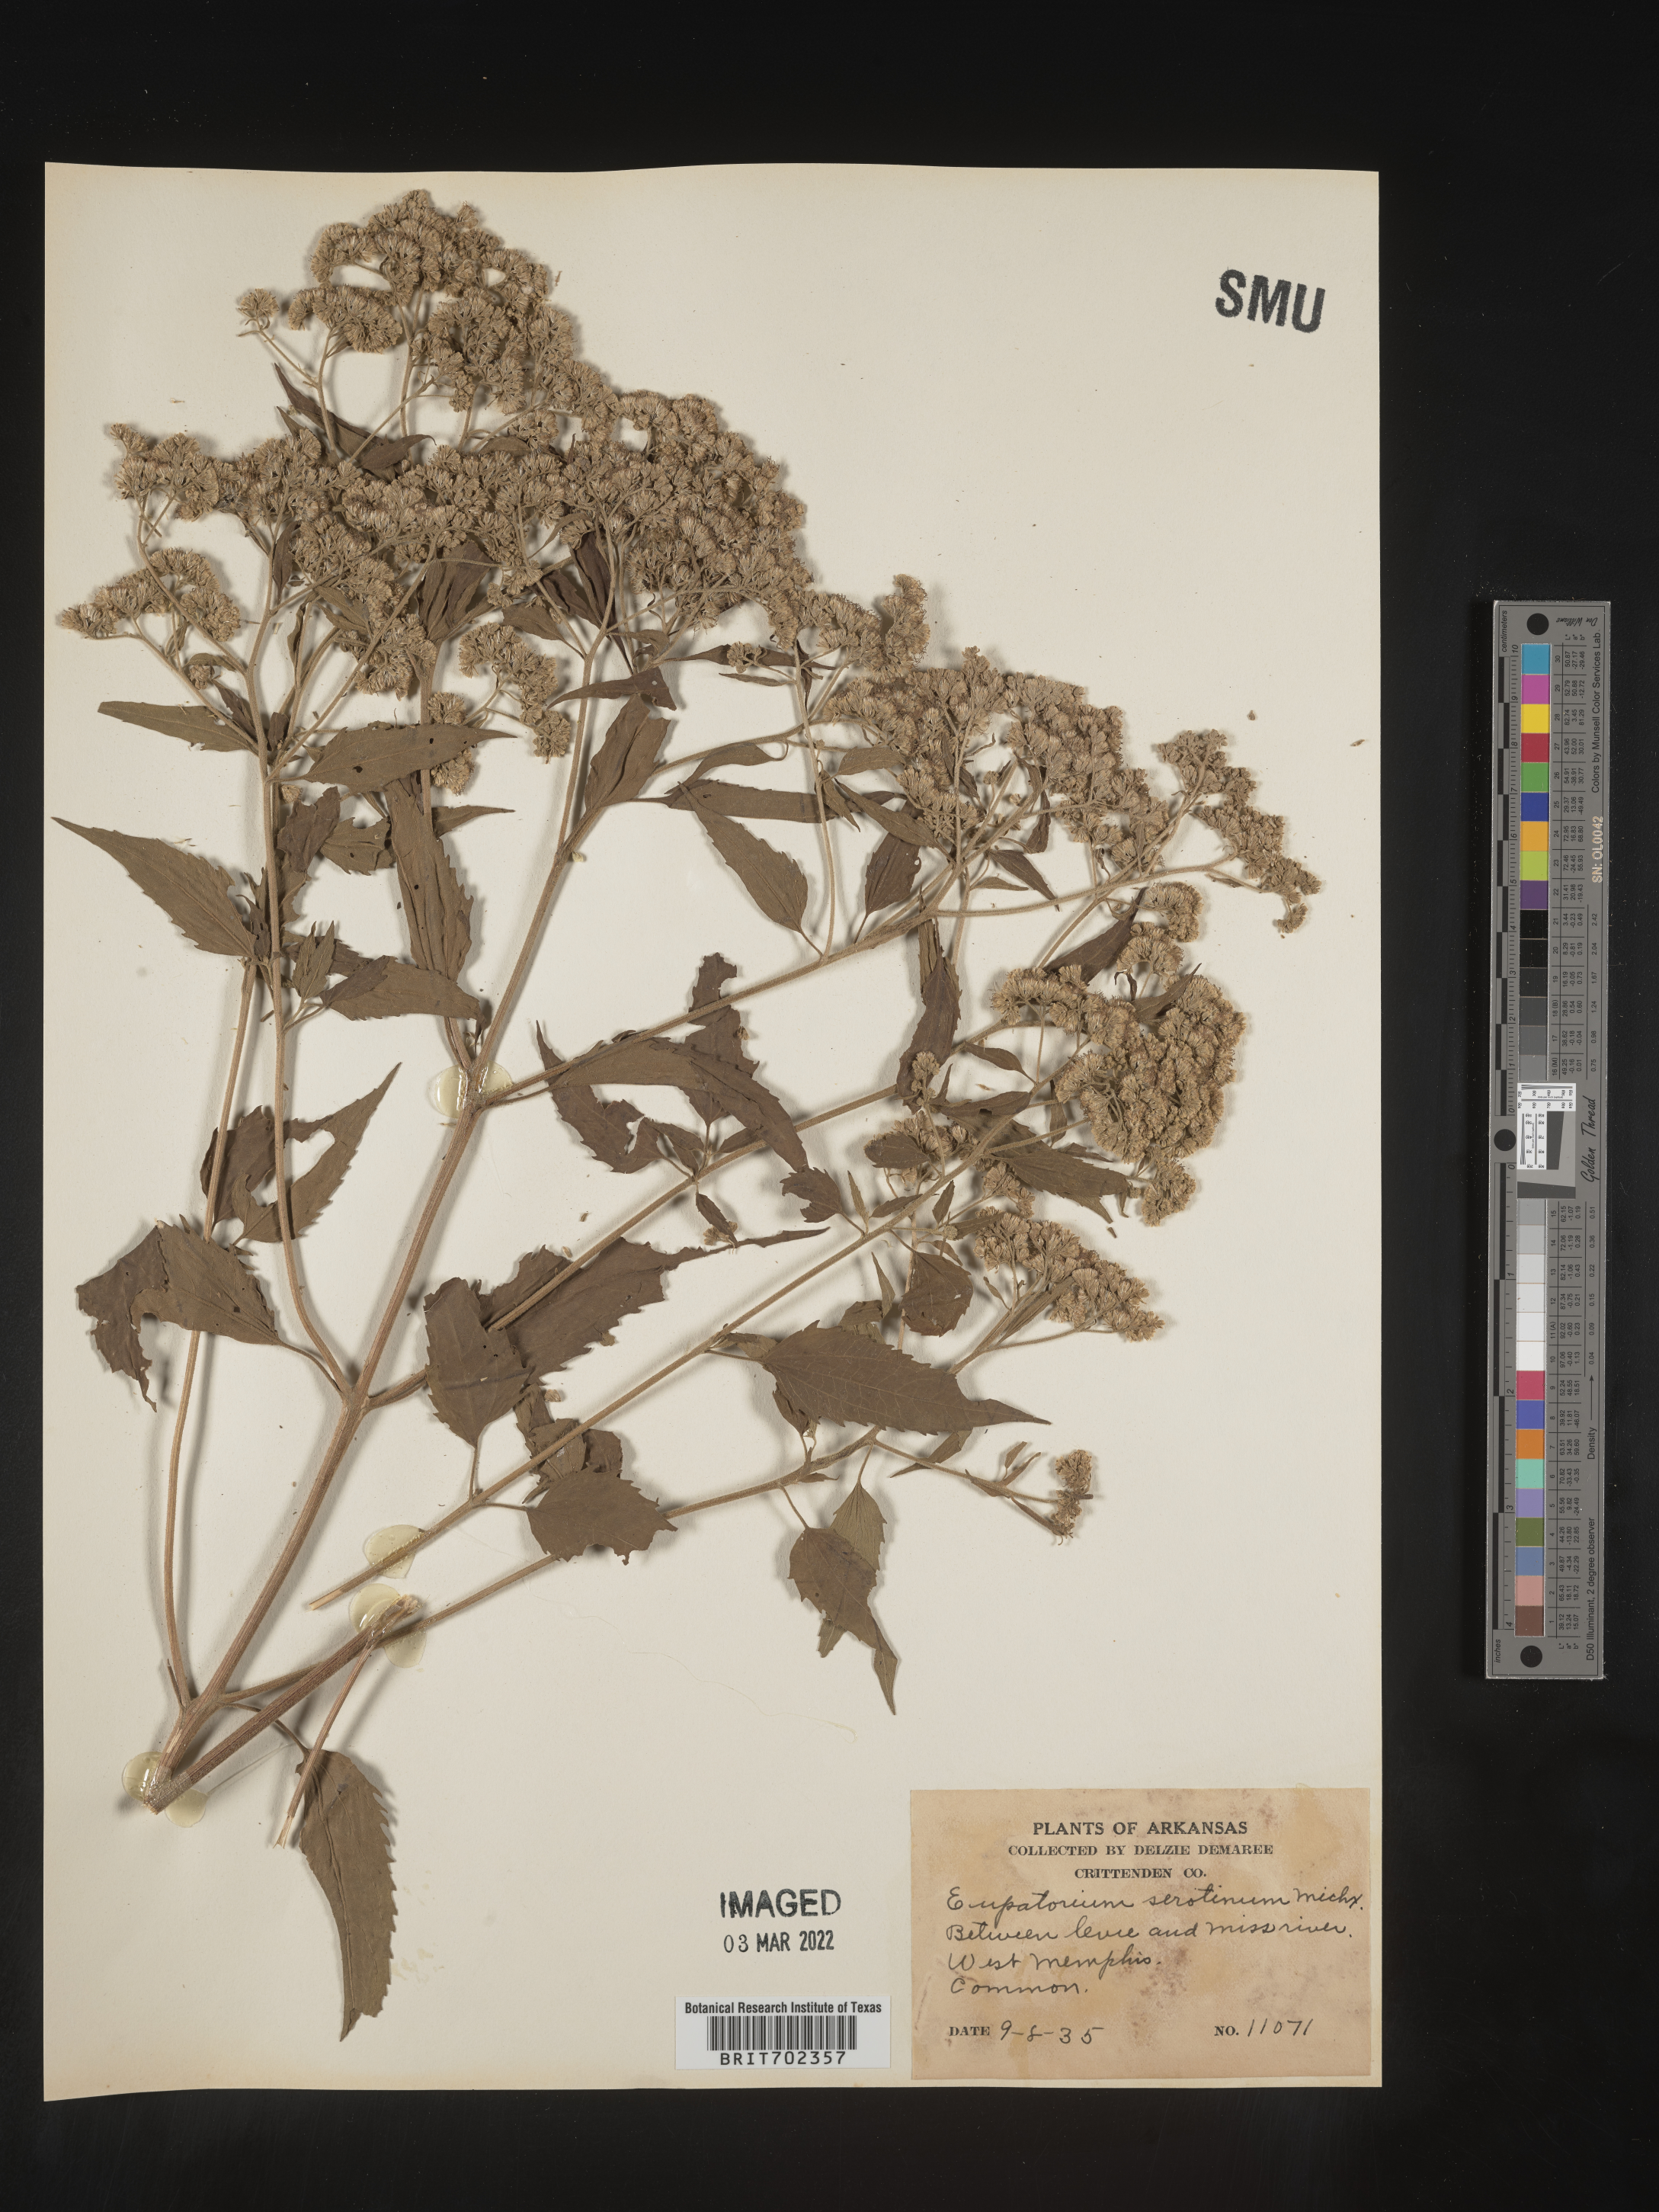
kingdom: Plantae
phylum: Tracheophyta
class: Magnoliopsida
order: Asterales
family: Asteraceae
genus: Eupatorium
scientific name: Eupatorium serotinum
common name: Late boneset
